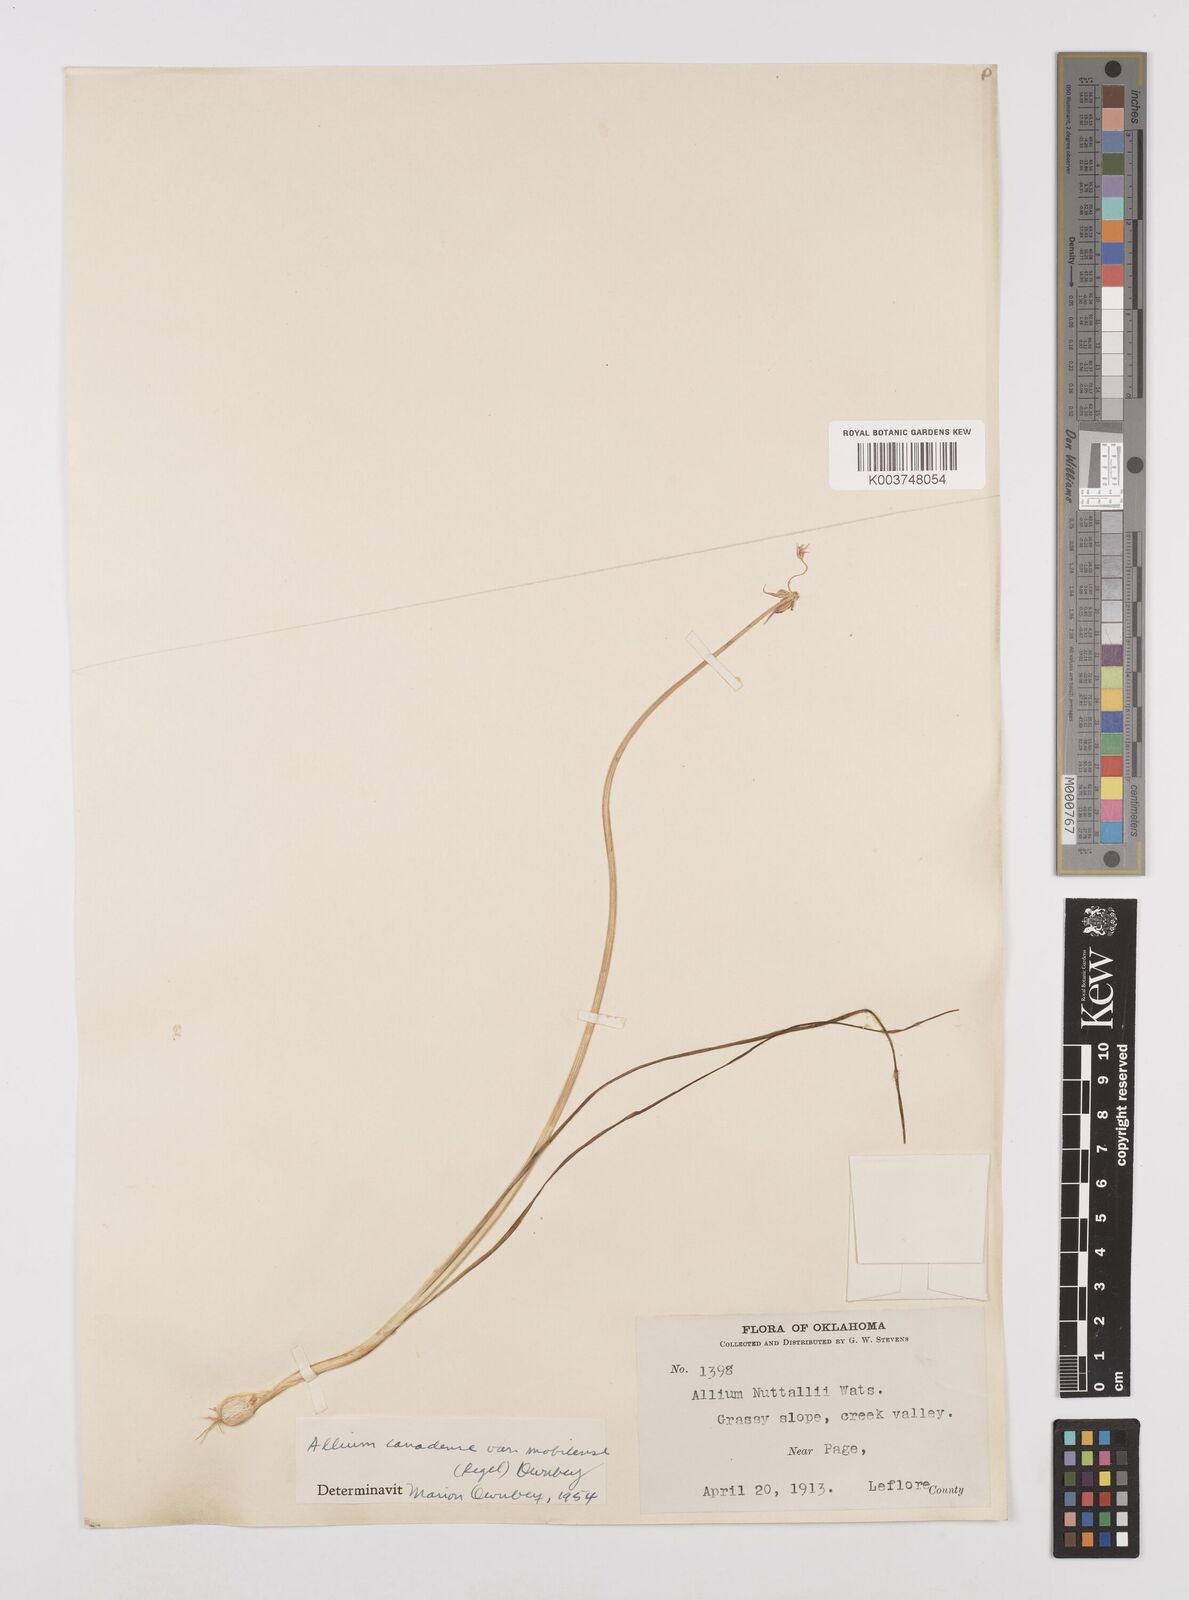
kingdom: Plantae
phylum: Tracheophyta
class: Liliopsida
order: Asparagales
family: Amaryllidaceae
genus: Allium
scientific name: Allium canadense
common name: Meadow garlic
